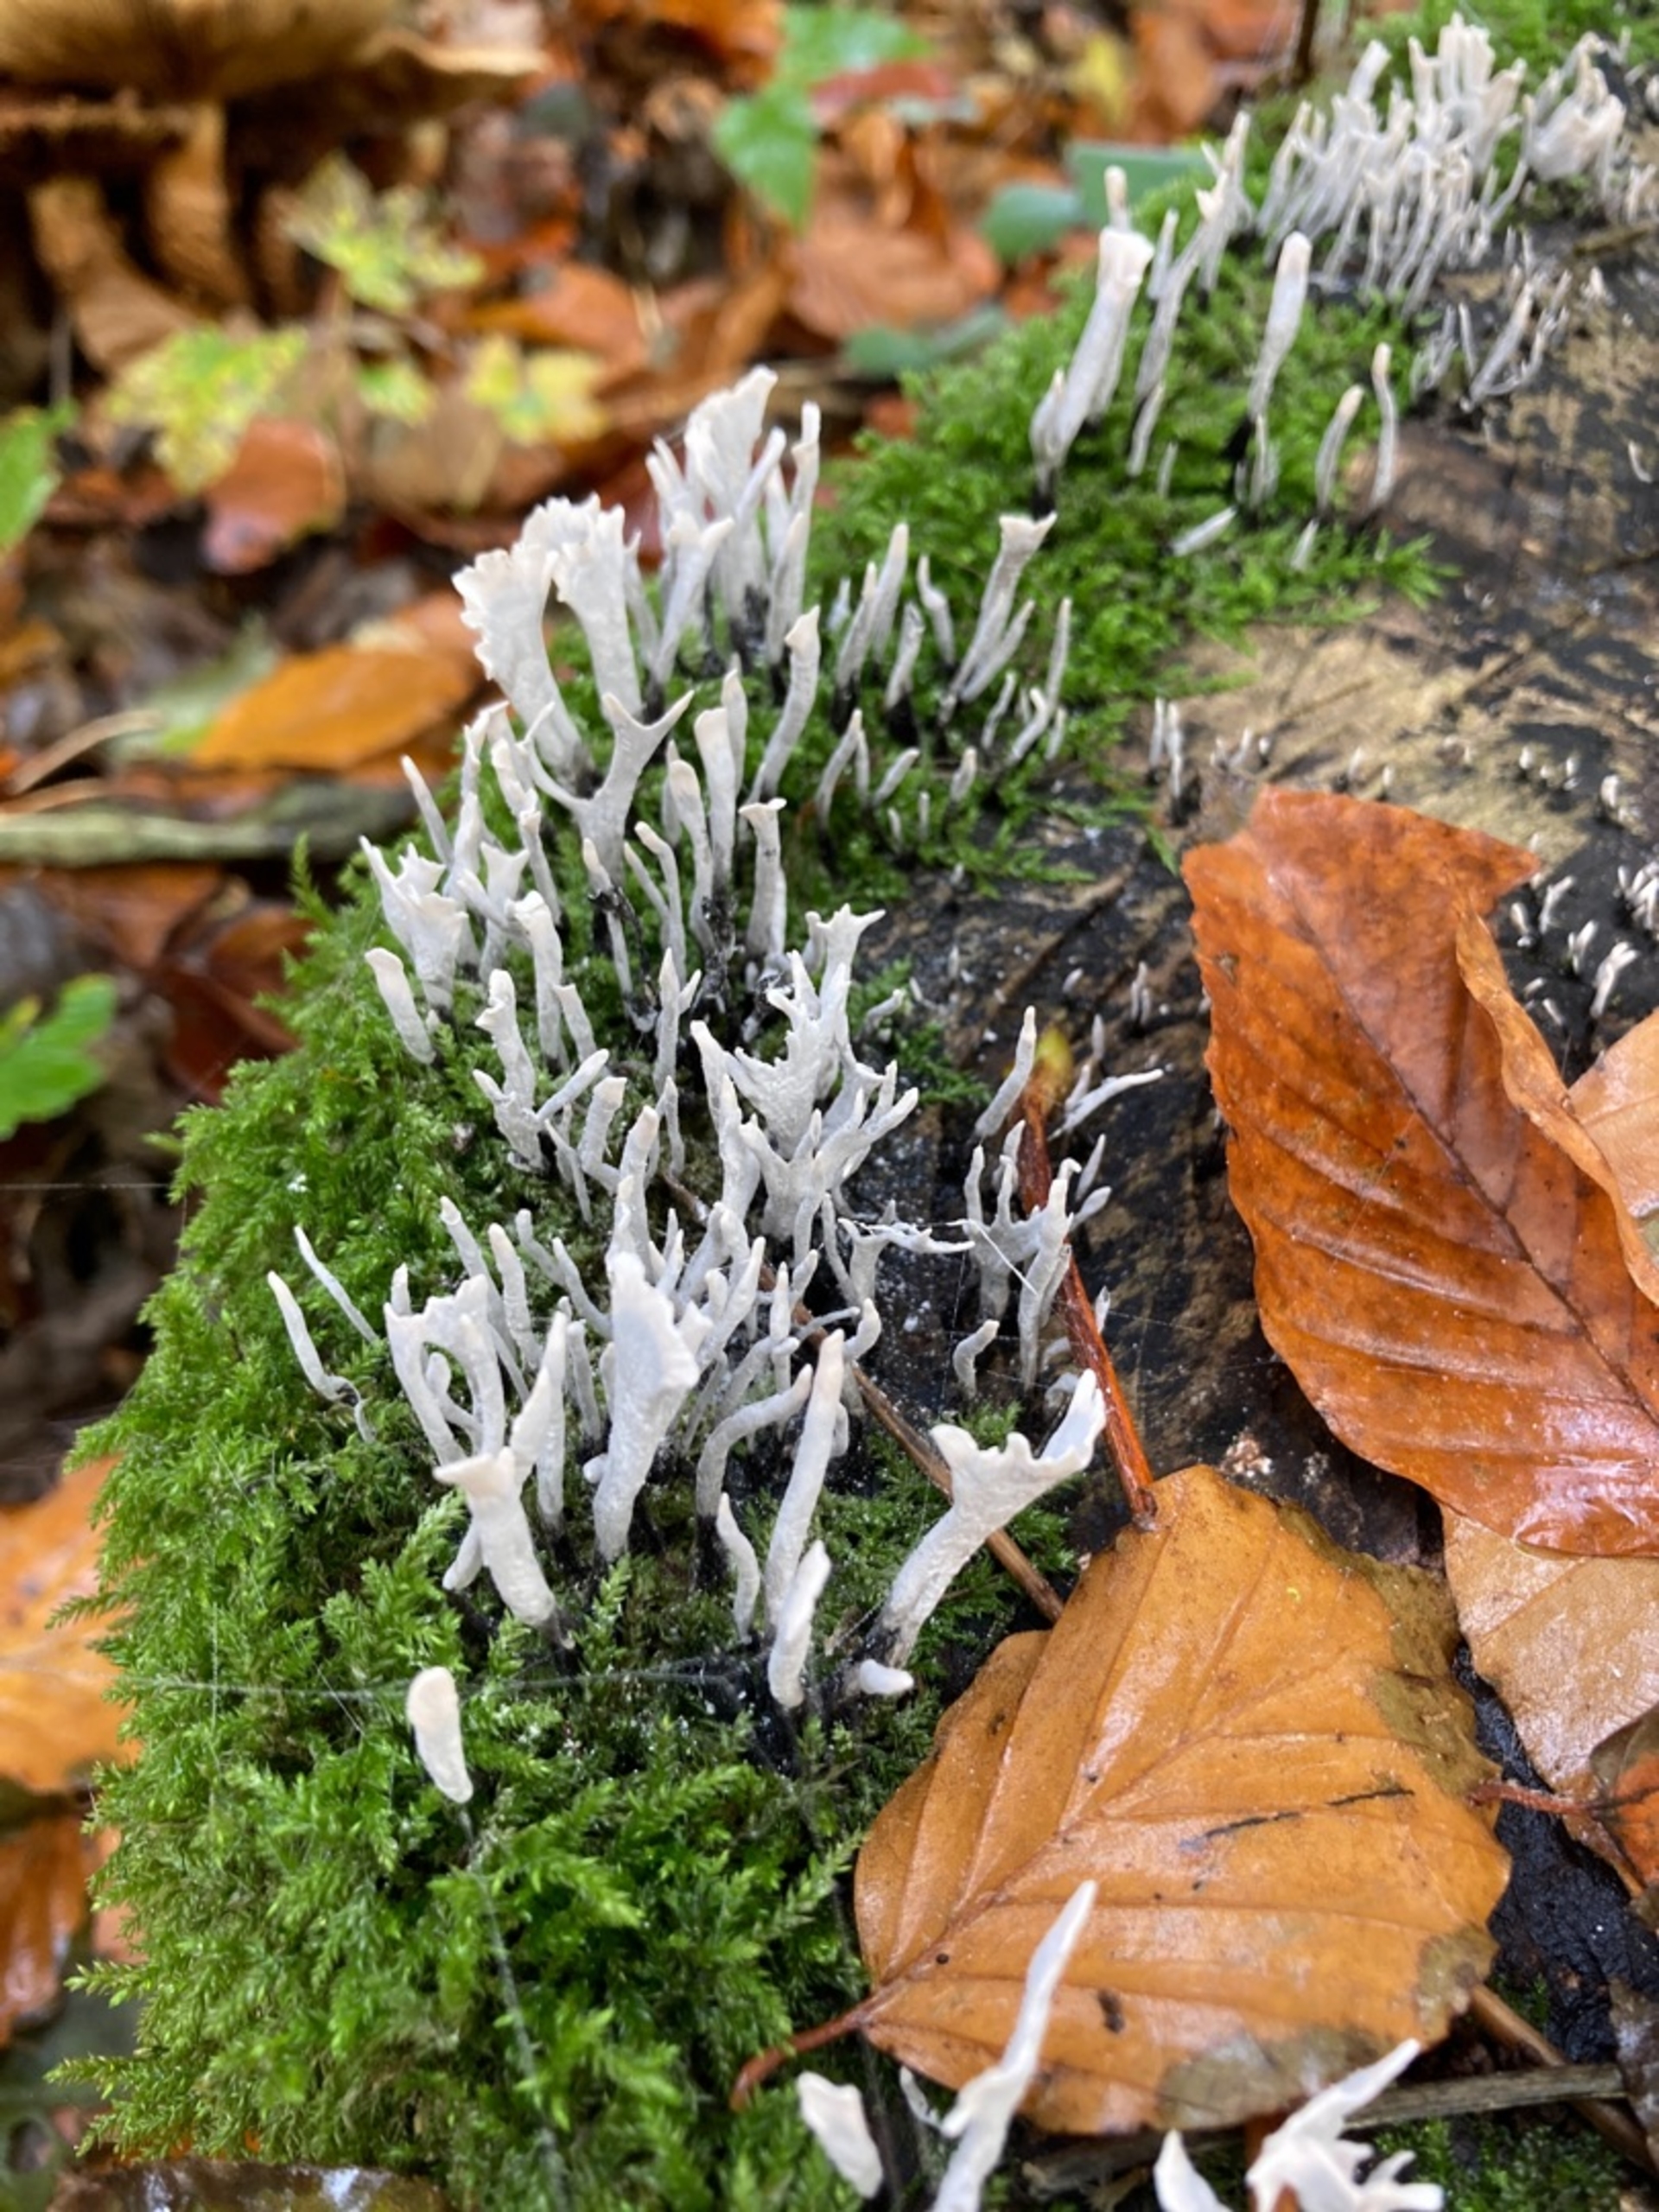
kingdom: Fungi
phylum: Ascomycota
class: Sordariomycetes
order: Xylariales
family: Xylariaceae
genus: Xylaria
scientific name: Xylaria hypoxylon
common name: Grenet stødsvamp
